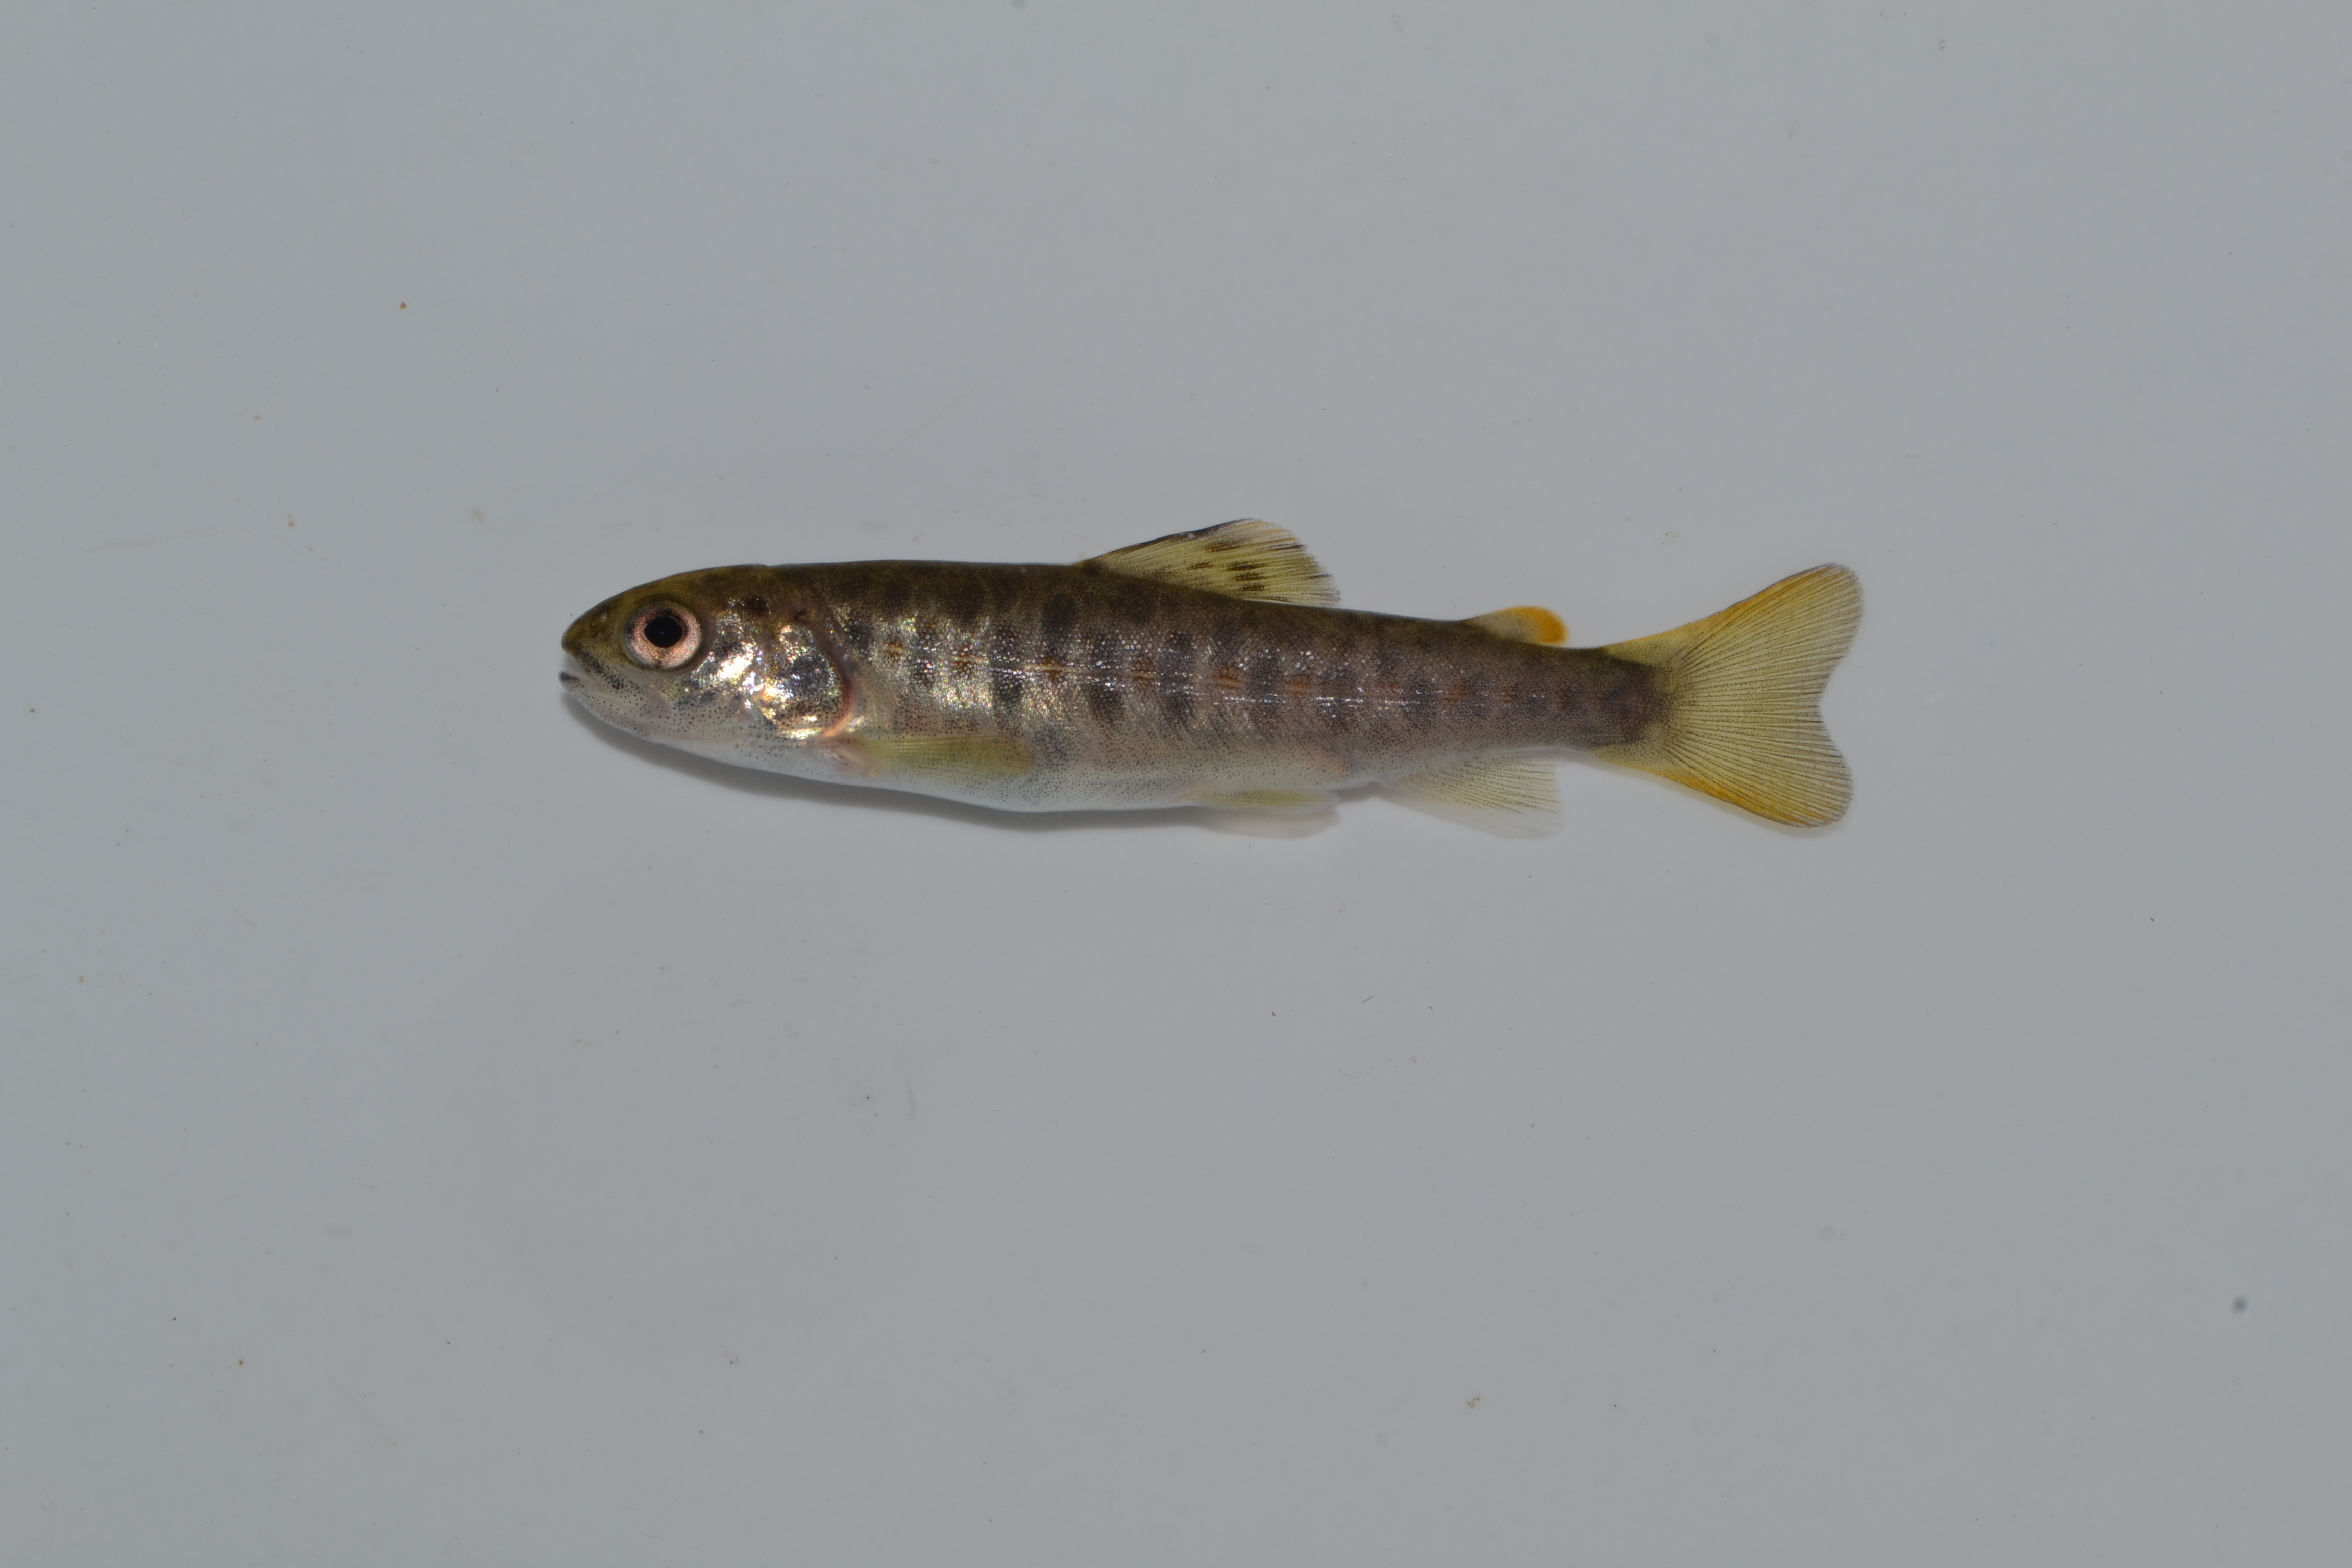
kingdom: Animalia
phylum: Chordata
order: Salmoniformes
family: Salmonidae
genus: Salmo
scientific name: Salmo trutta
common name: Brown trout
